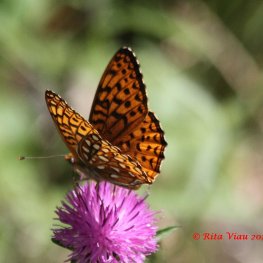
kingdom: Animalia
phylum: Arthropoda
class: Insecta
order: Lepidoptera
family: Nymphalidae
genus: Speyeria
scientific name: Speyeria atlantis
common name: Atlantis Fritillary
